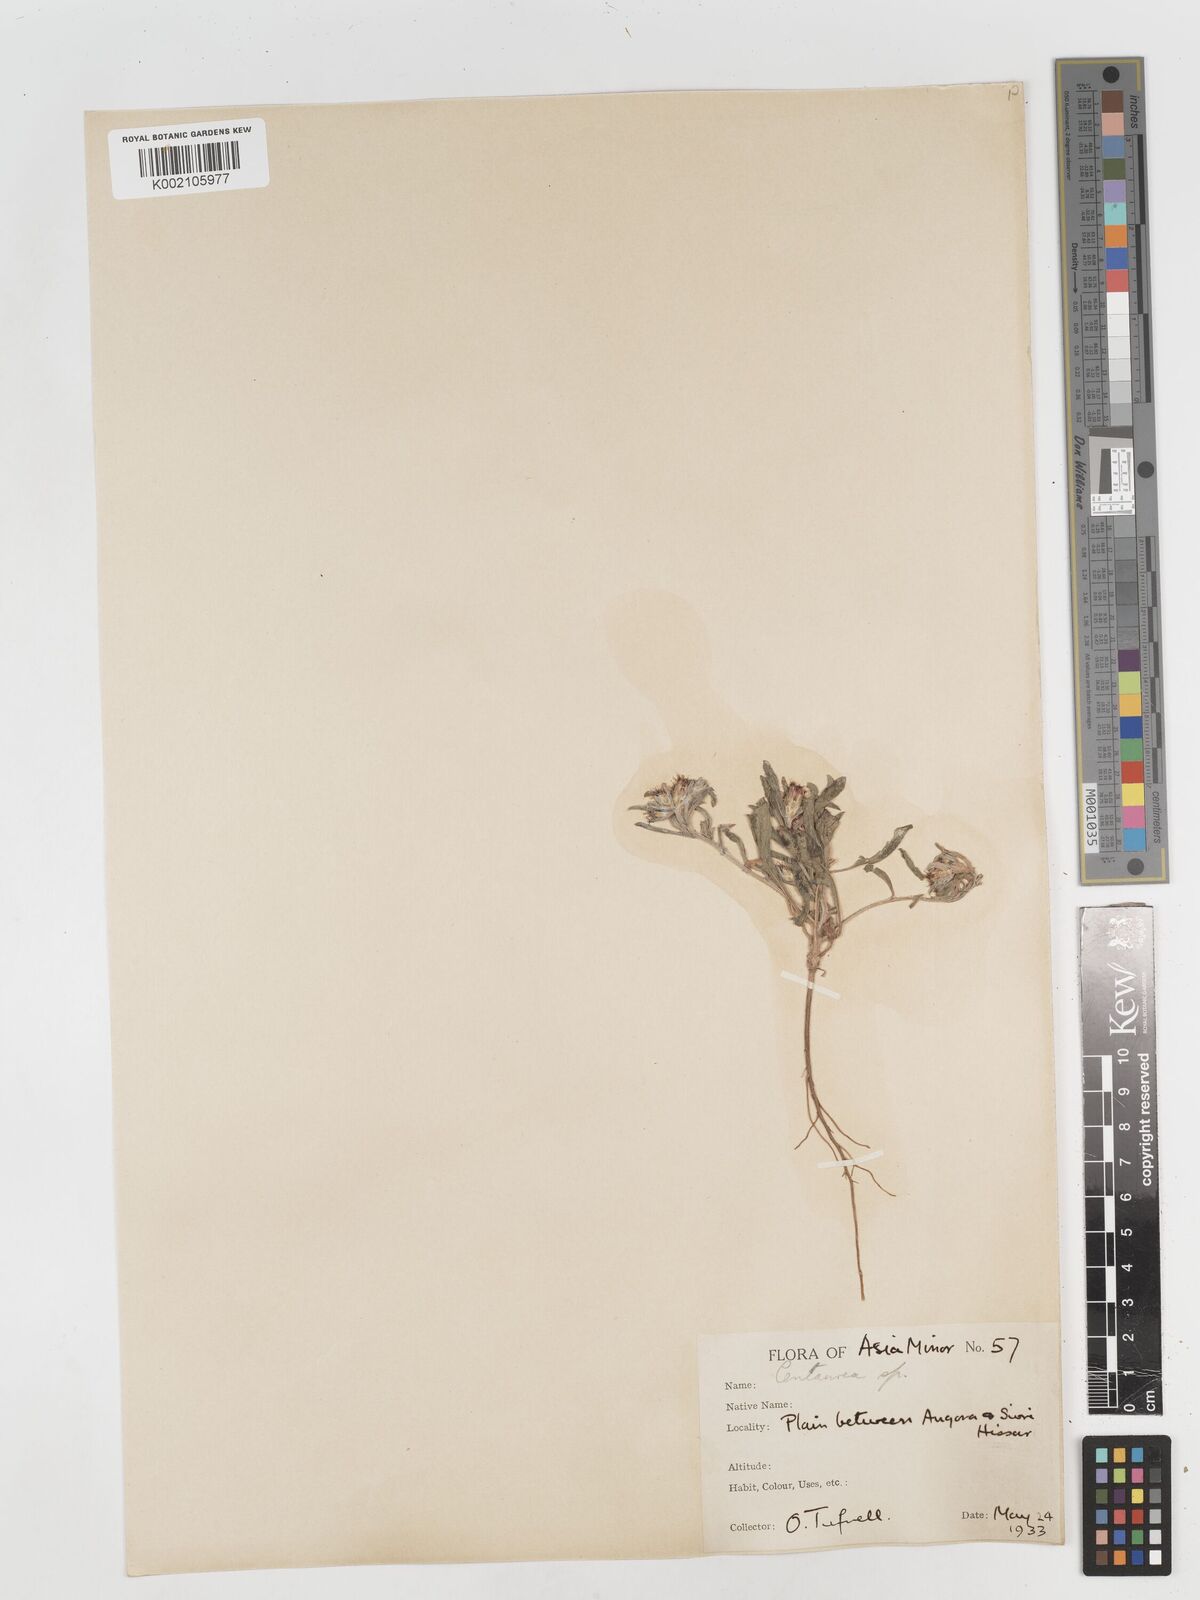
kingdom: Plantae
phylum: Tracheophyta
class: Magnoliopsida
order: Asterales
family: Asteraceae
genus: Centaurea
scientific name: Centaurea
